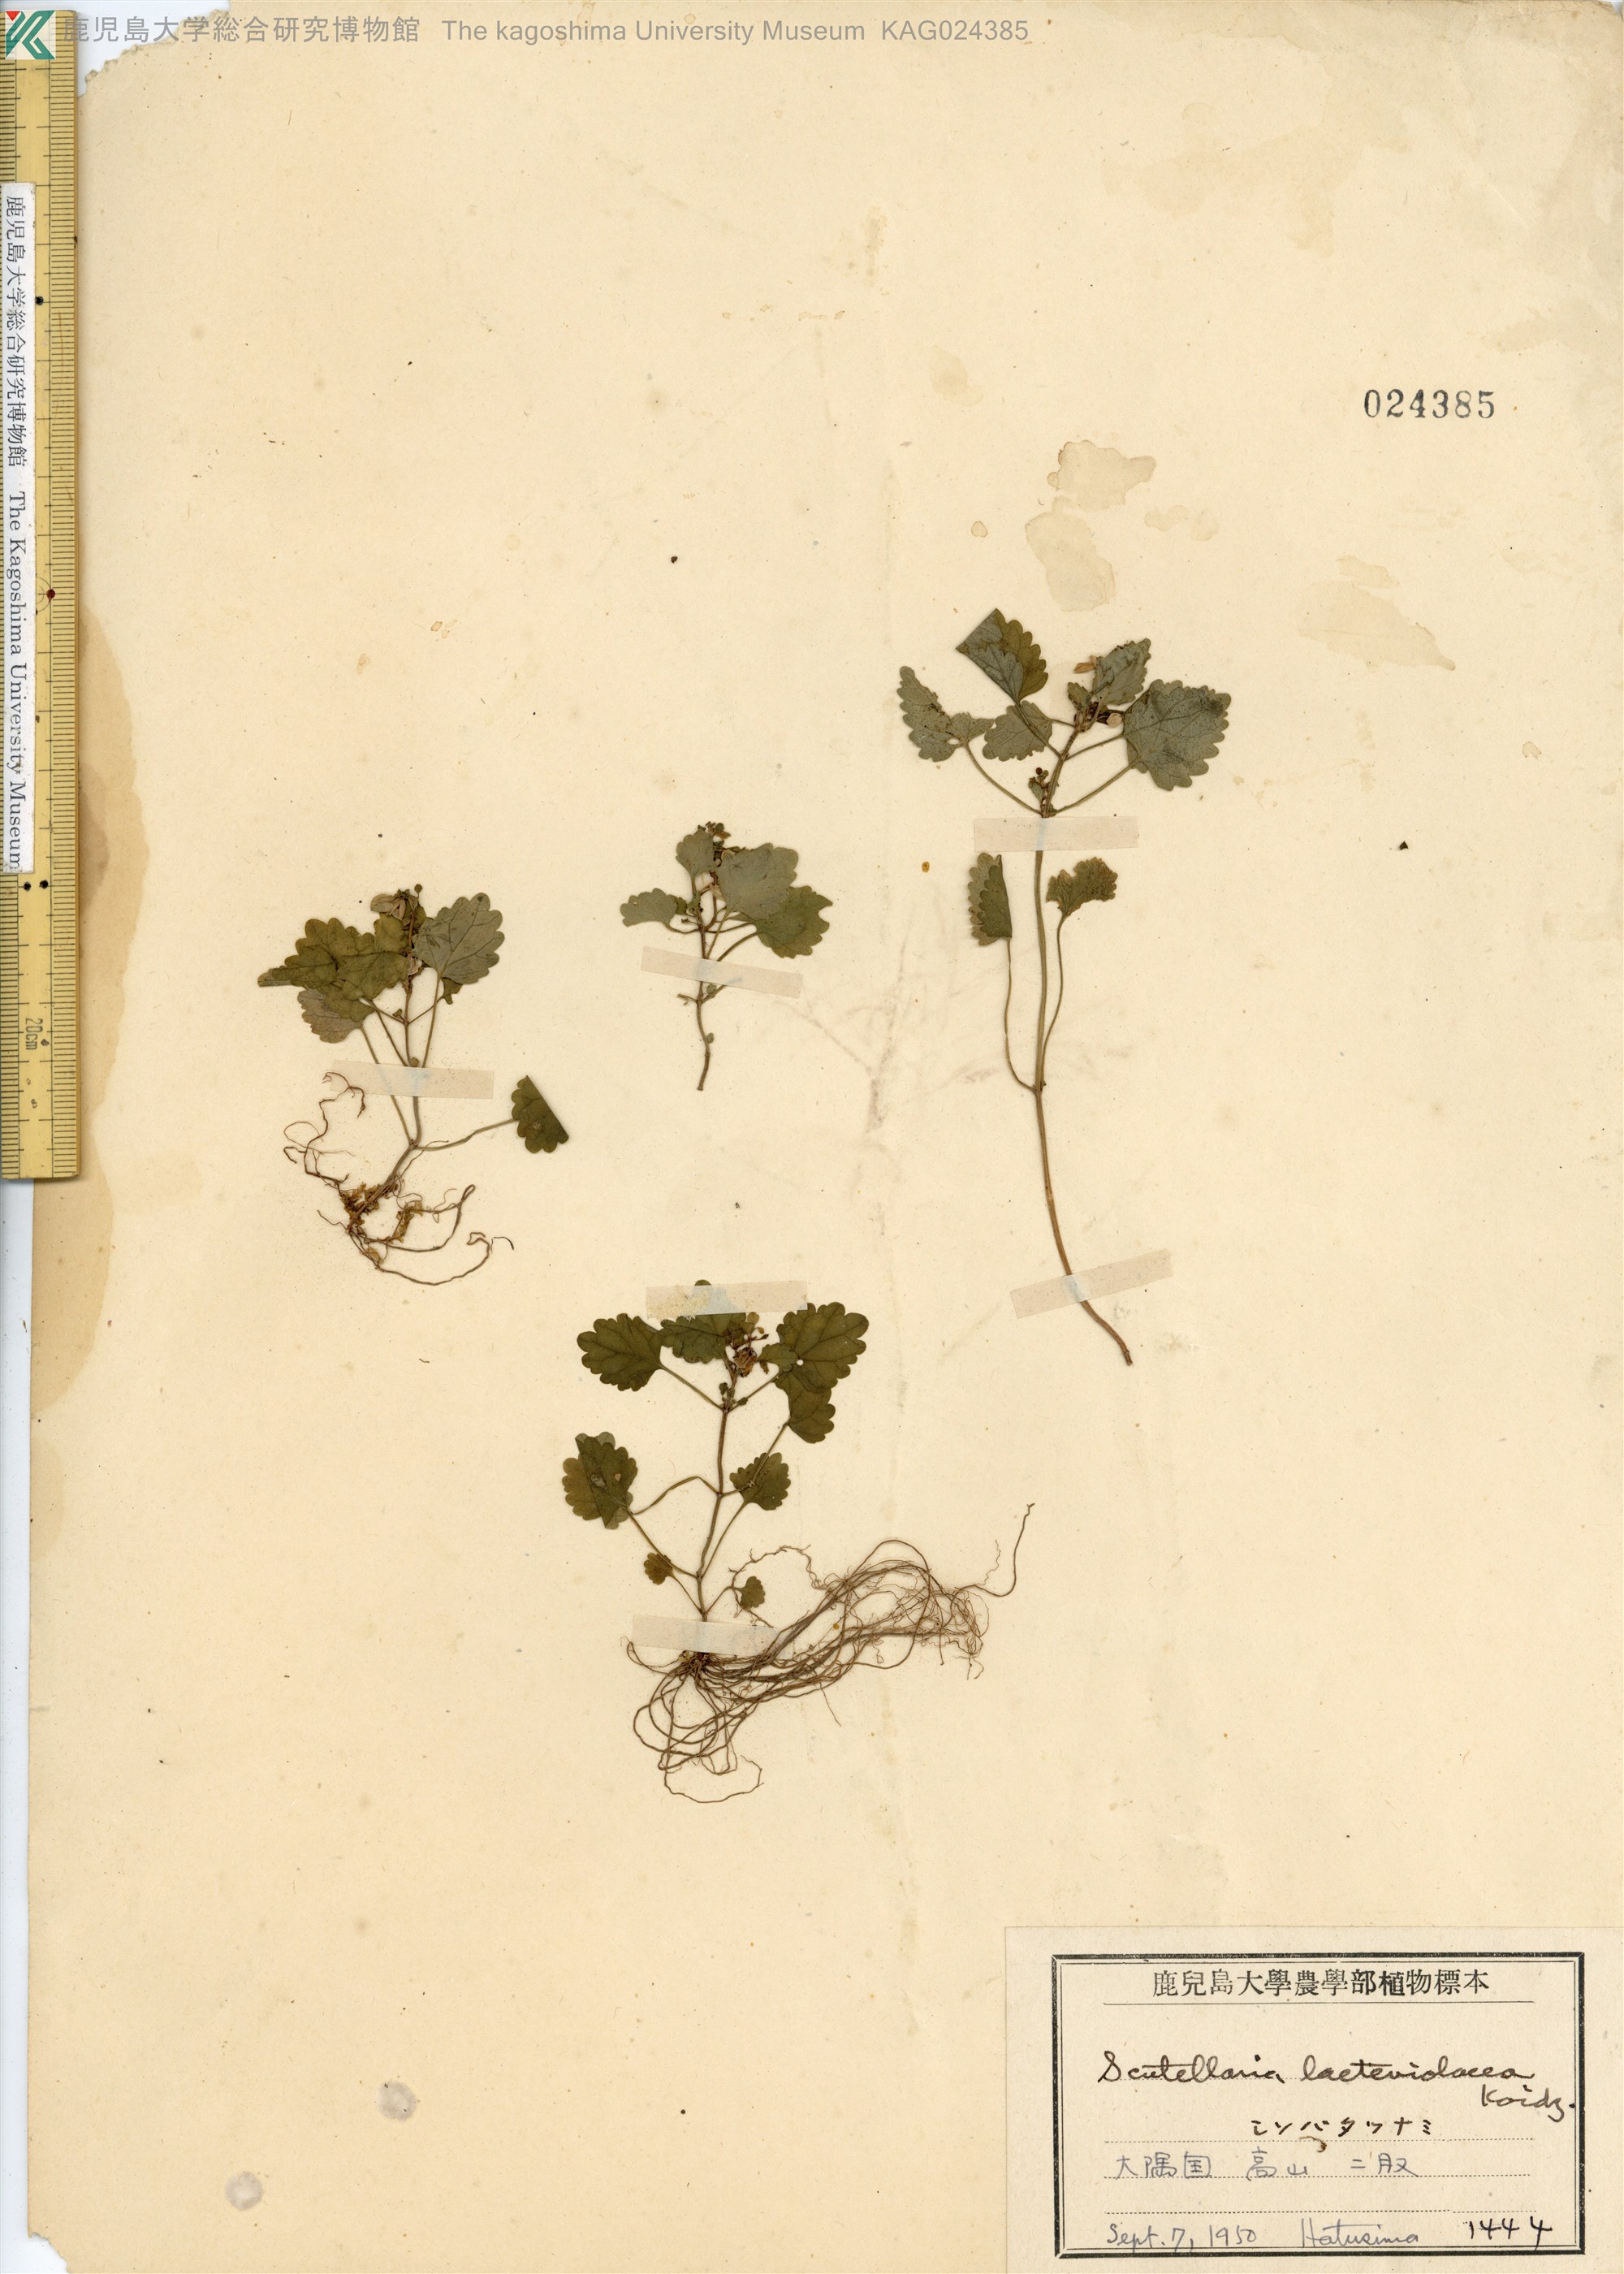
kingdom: Plantae
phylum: Tracheophyta
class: Magnoliopsida
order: Lamiales
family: Lamiaceae
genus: Scutellaria
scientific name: Scutellaria laeteviolacea
